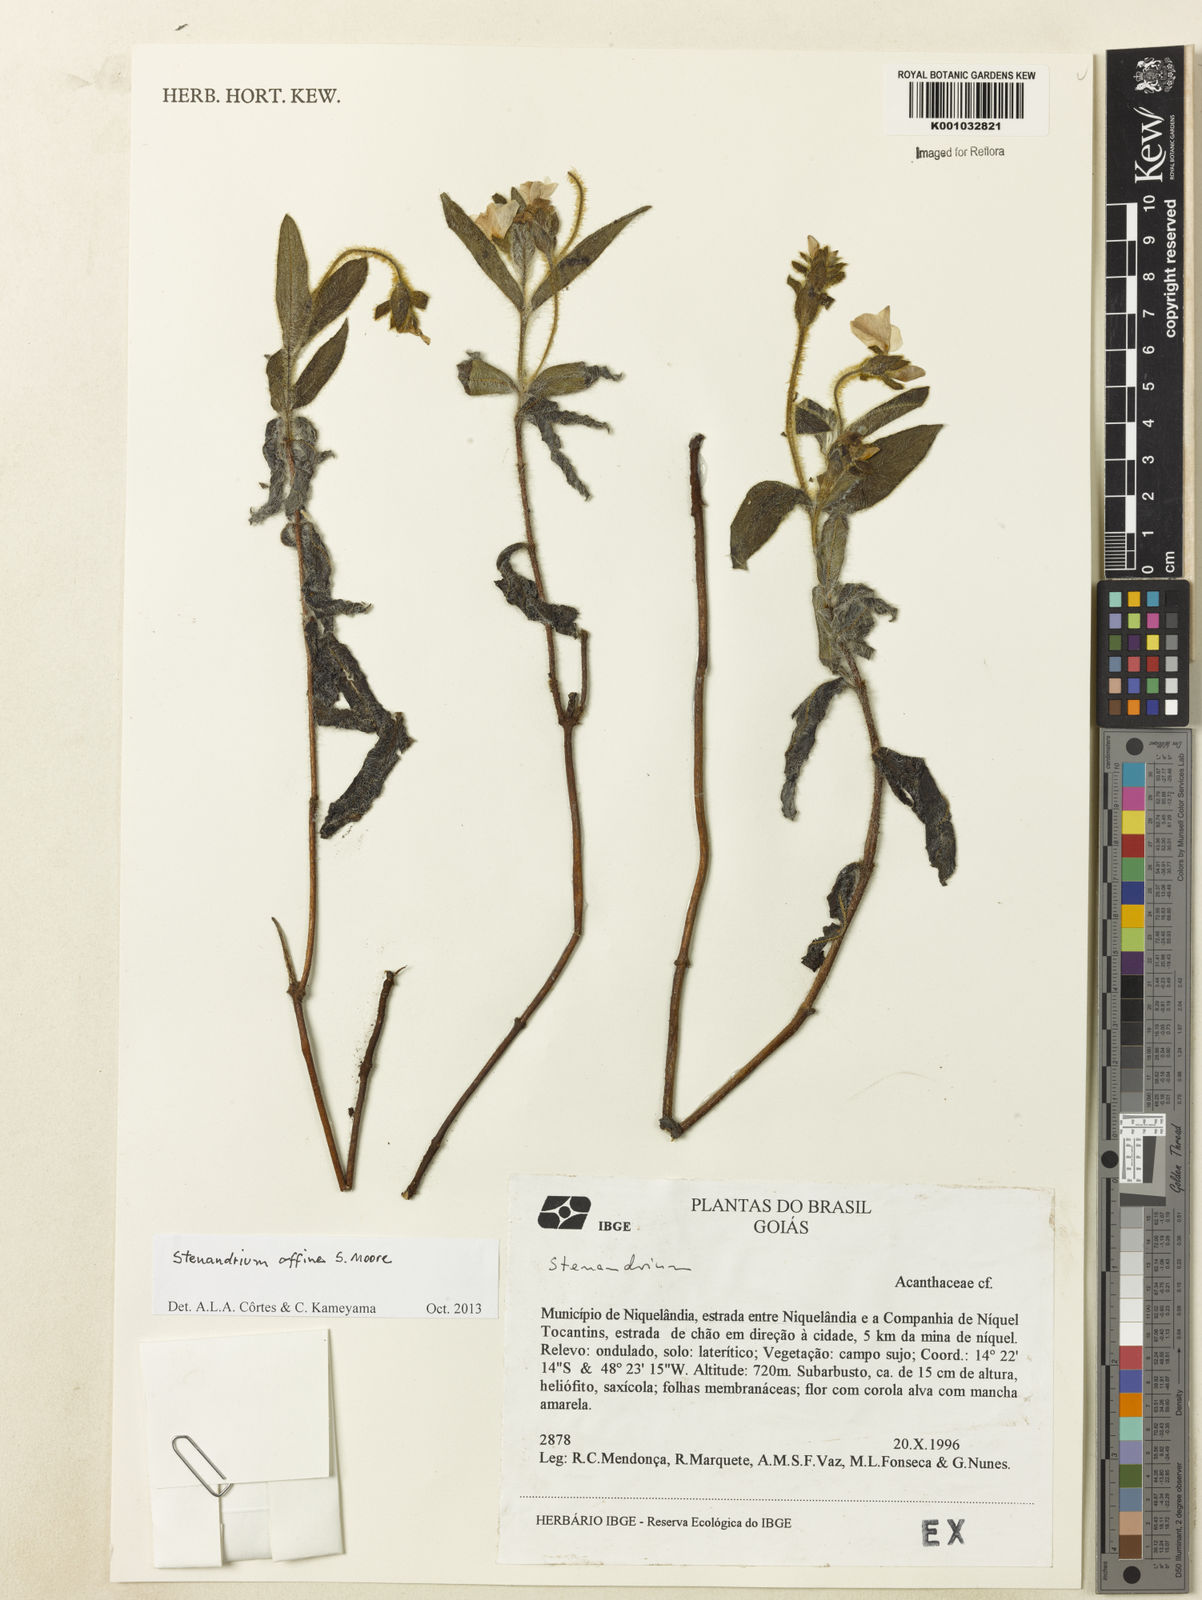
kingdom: Plantae
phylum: Tracheophyta
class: Magnoliopsida
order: Lamiales
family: Acanthaceae
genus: Stenandrium
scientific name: Stenandrium affine
